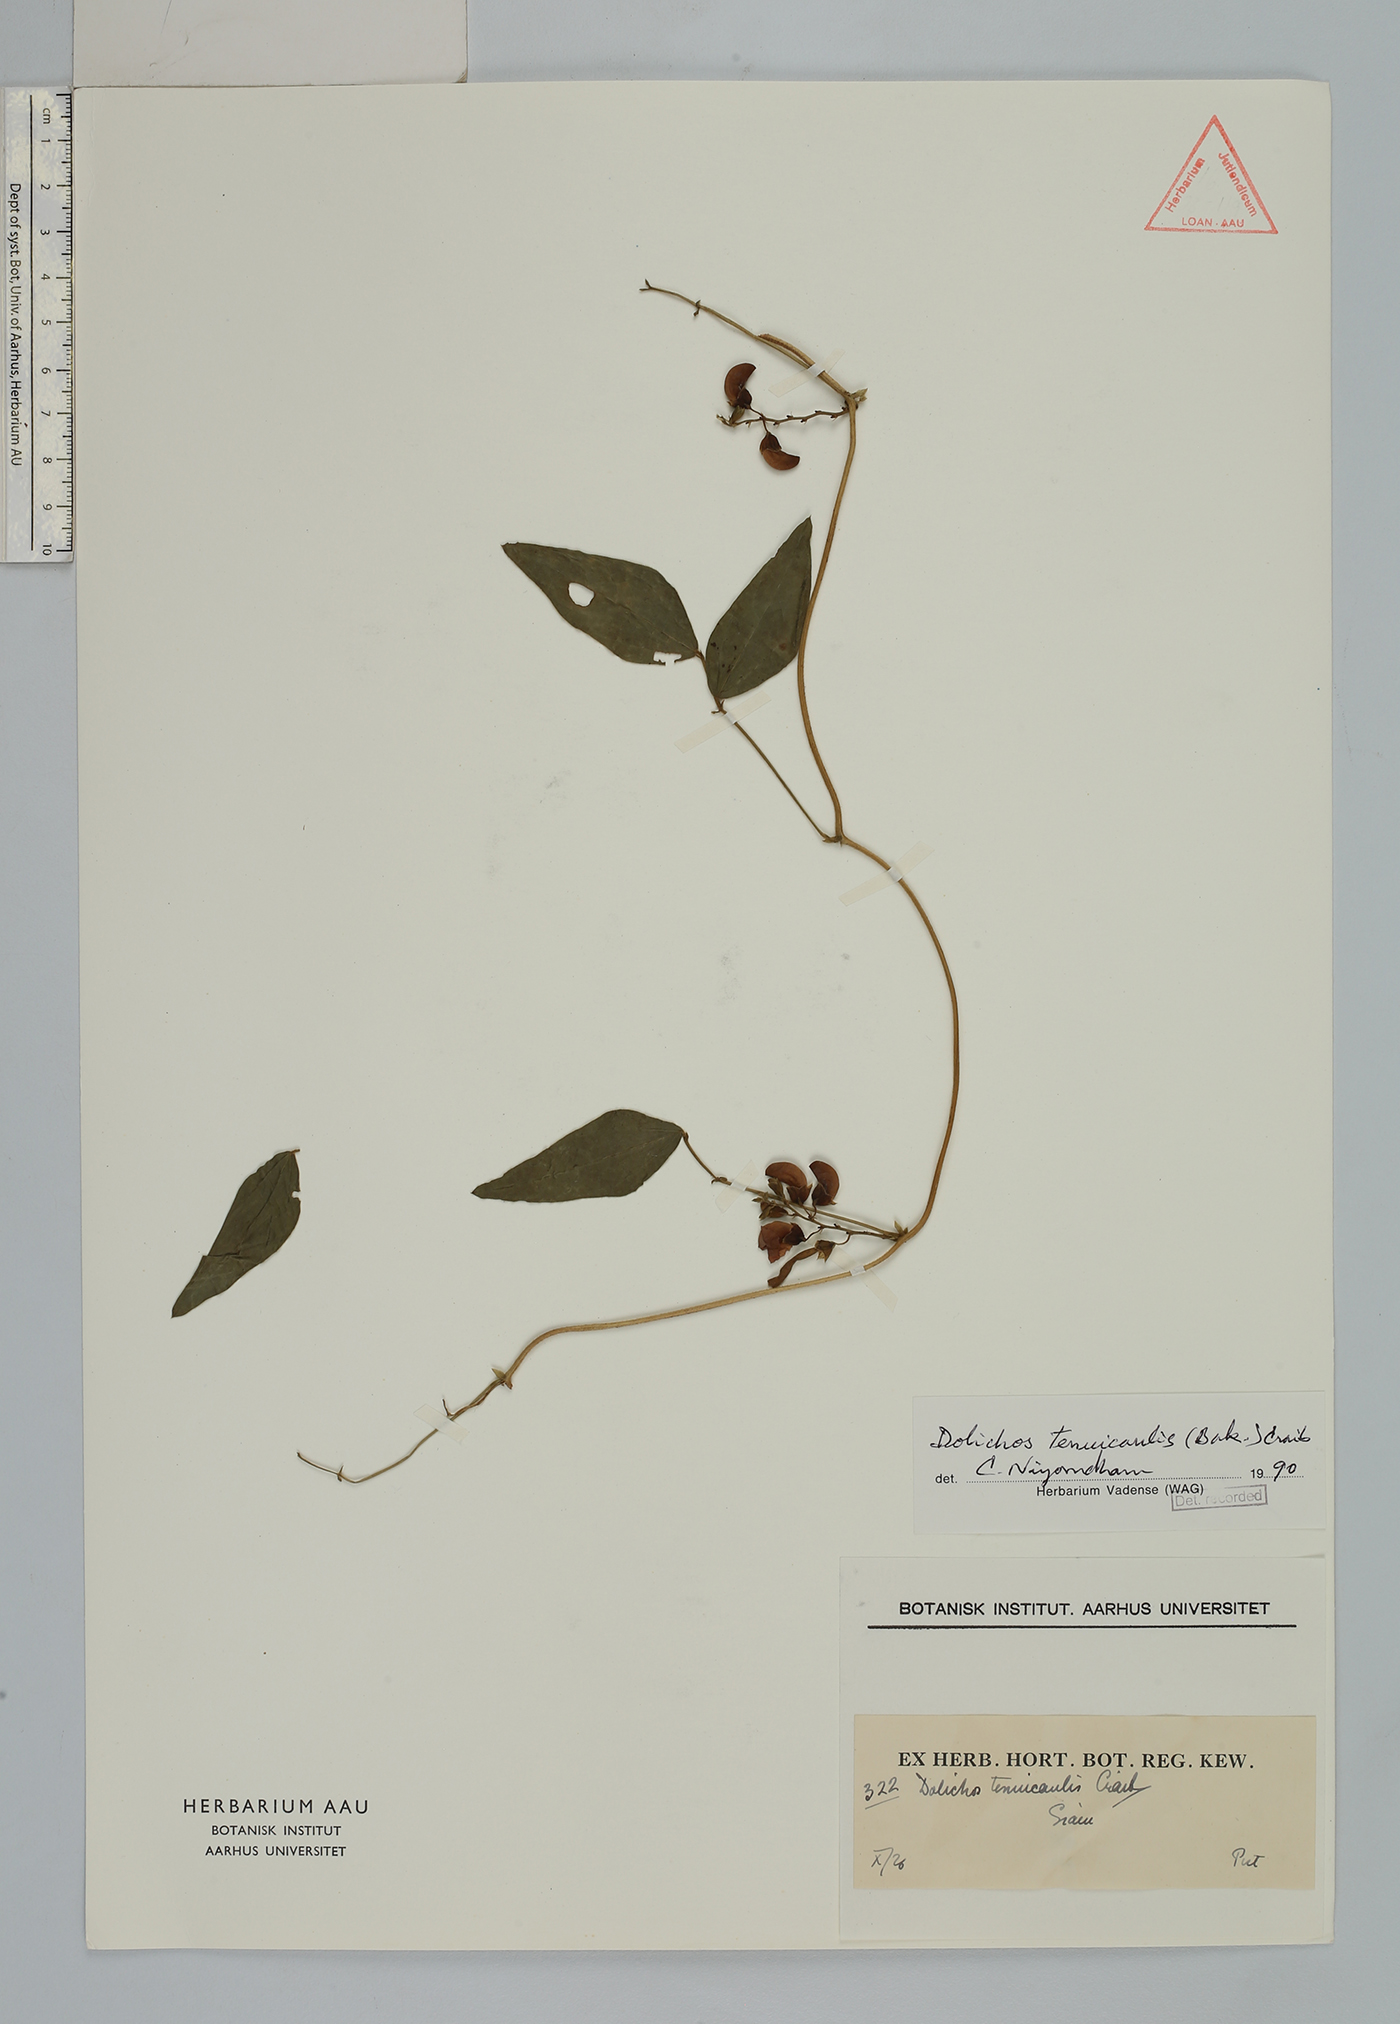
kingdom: Plantae
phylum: Tracheophyta
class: Magnoliopsida
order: Fabales
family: Fabaceae
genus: Dolichos
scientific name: Dolichos tenuicaulis
